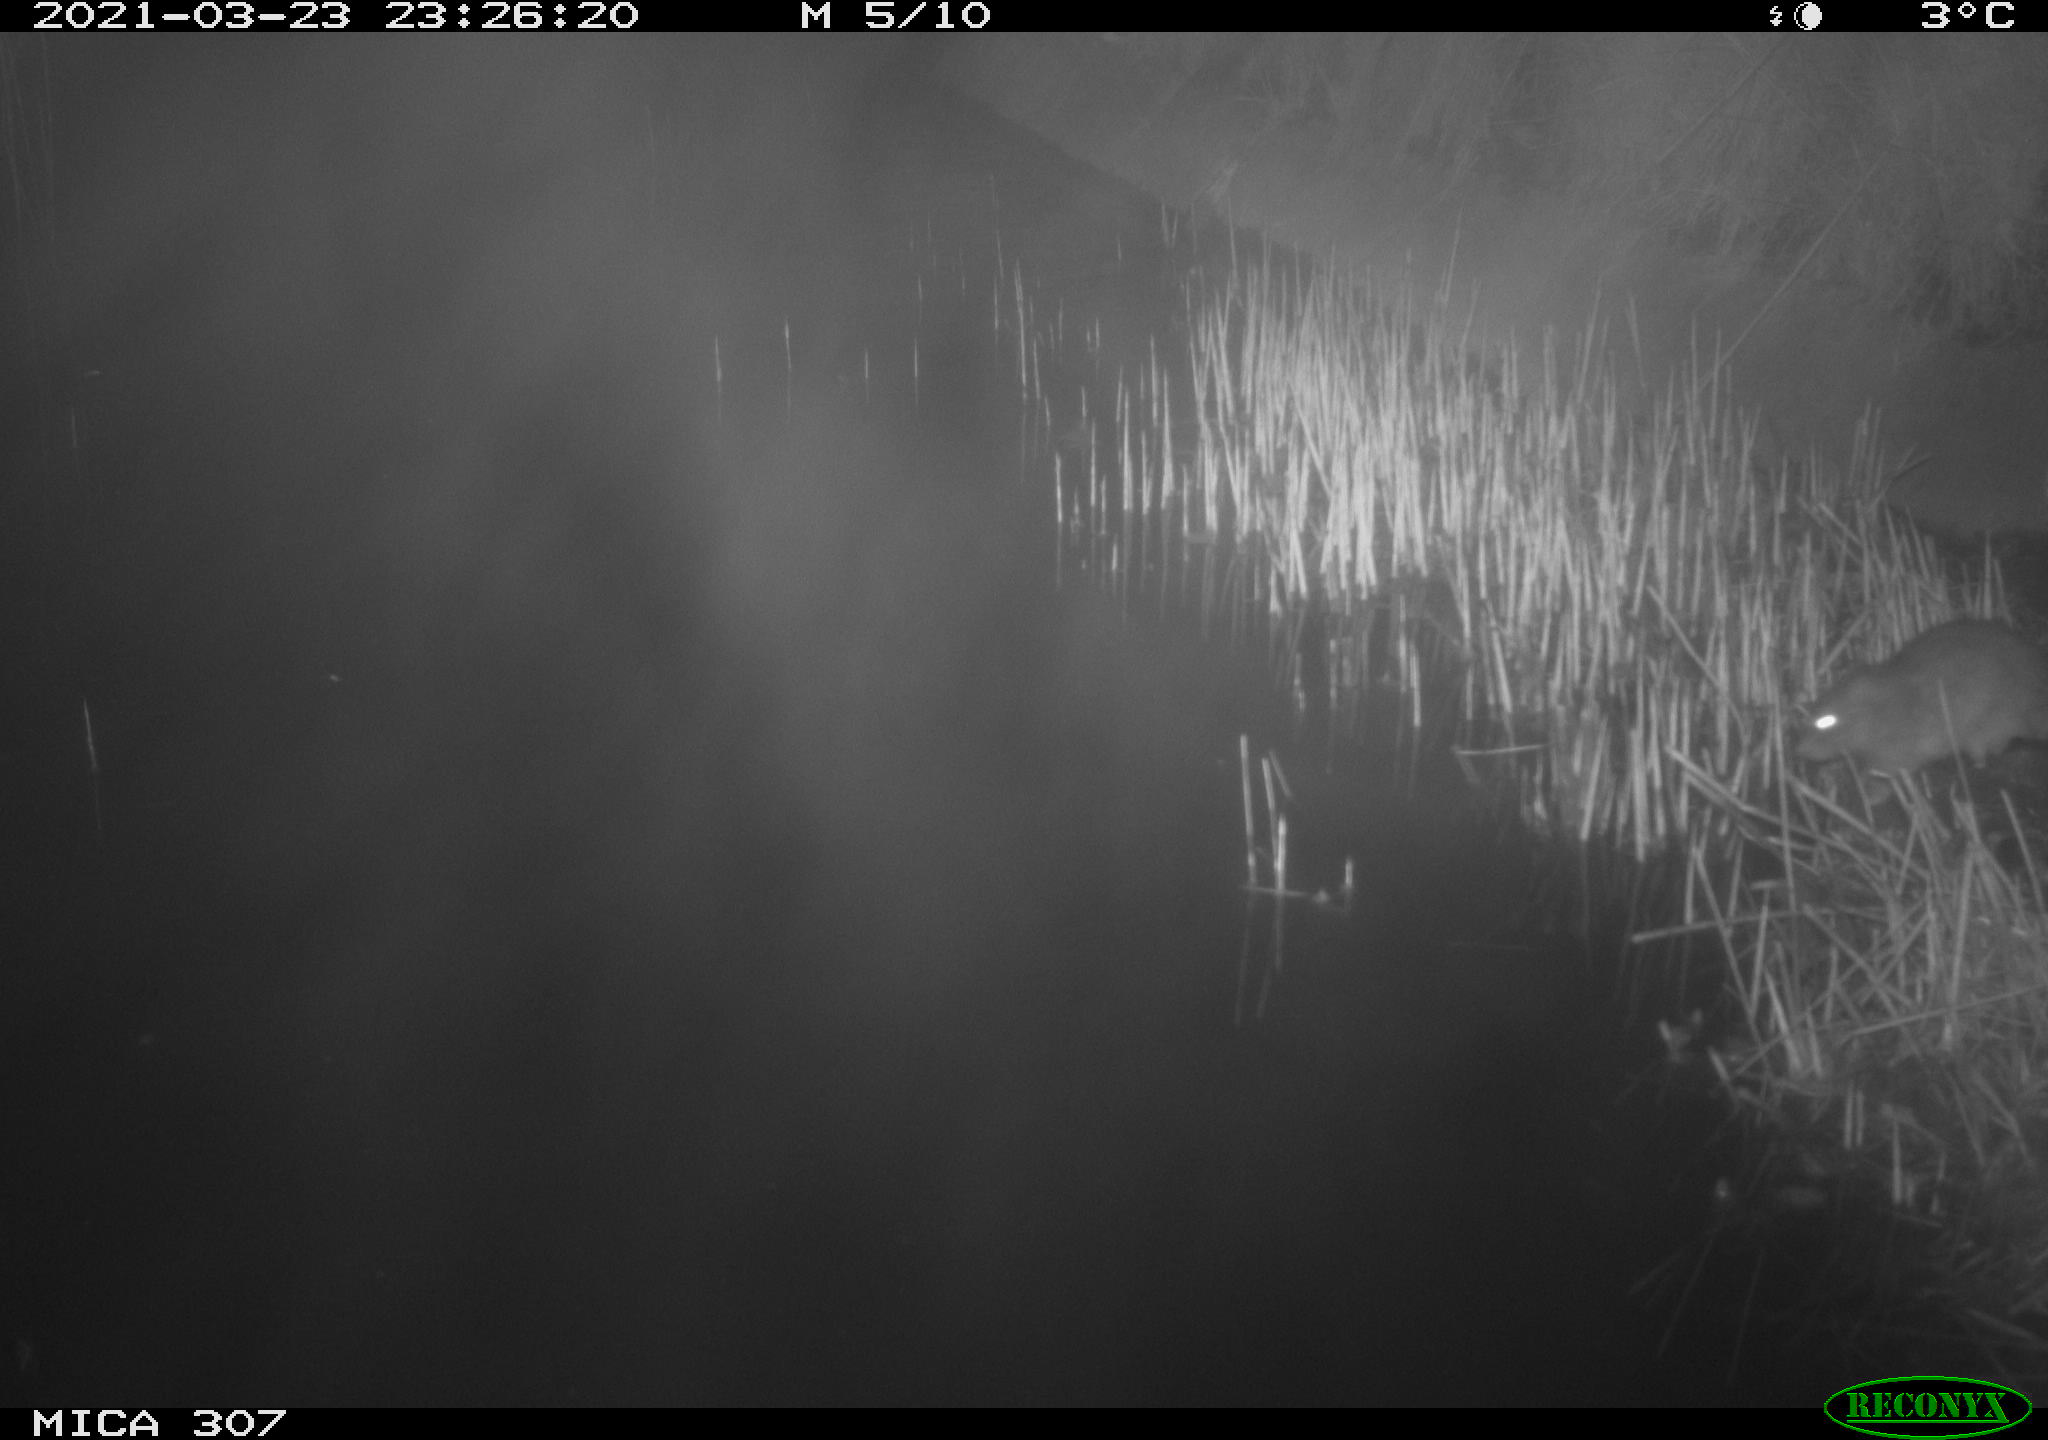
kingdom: Animalia
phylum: Chordata
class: Mammalia
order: Rodentia
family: Muridae
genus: Rattus
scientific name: Rattus norvegicus
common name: Brown rat
